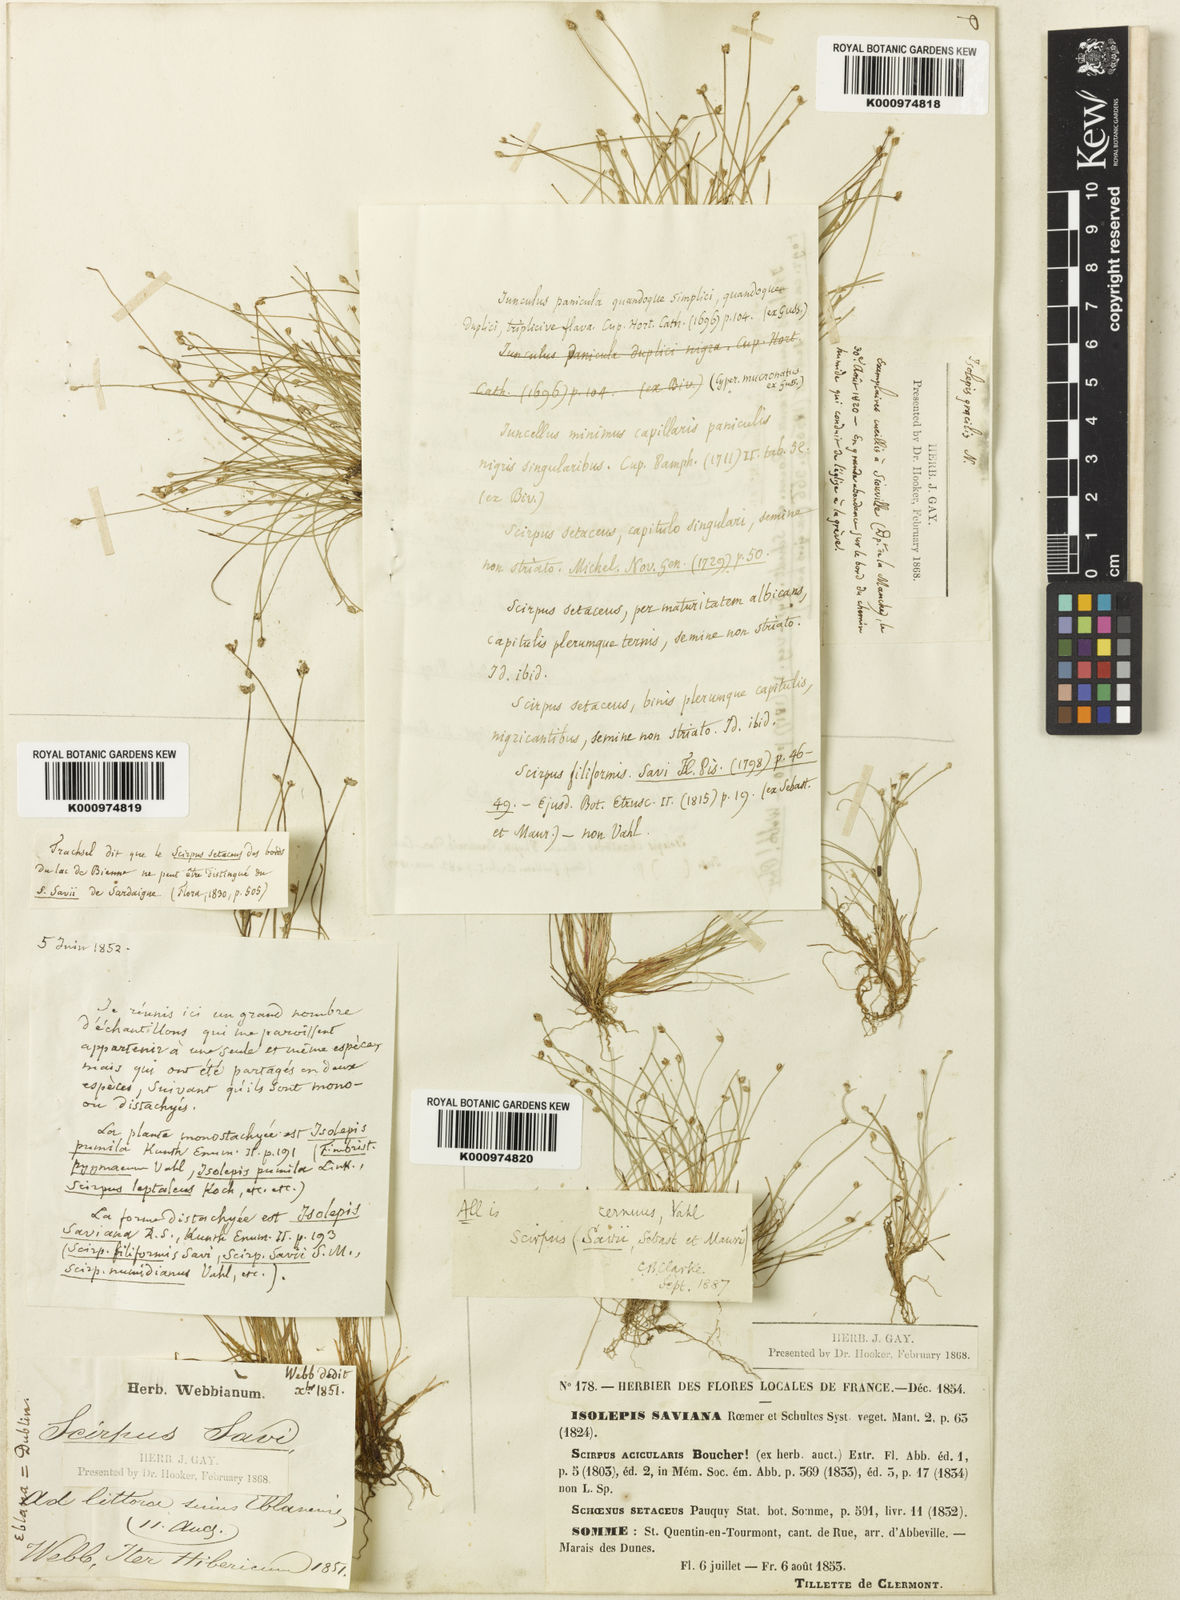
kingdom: Plantae
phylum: Tracheophyta
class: Liliopsida
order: Poales
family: Cyperaceae
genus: Isolepis
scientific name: Isolepis cernua
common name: Slender club-rush
